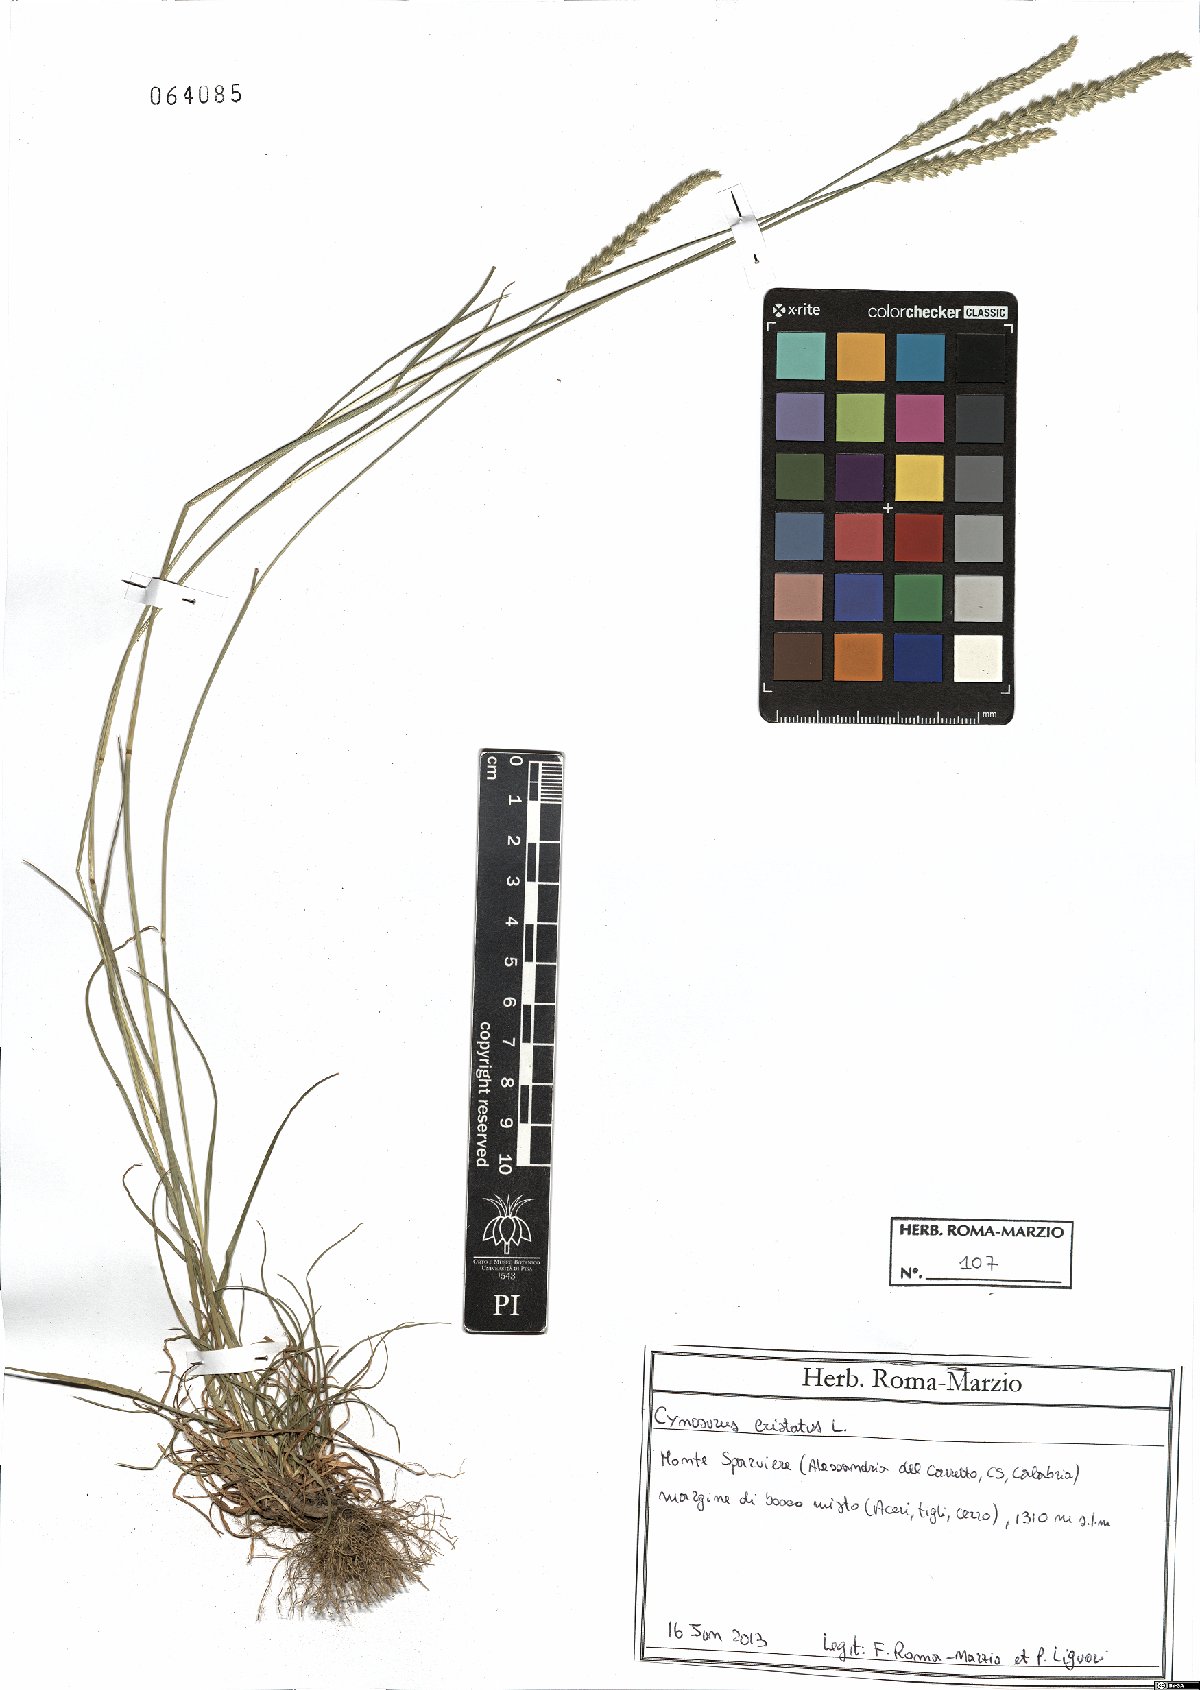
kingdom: Plantae
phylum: Tracheophyta
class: Liliopsida
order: Poales
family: Poaceae
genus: Cynosurus
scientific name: Cynosurus cristatus
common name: Crested dog's-tail
